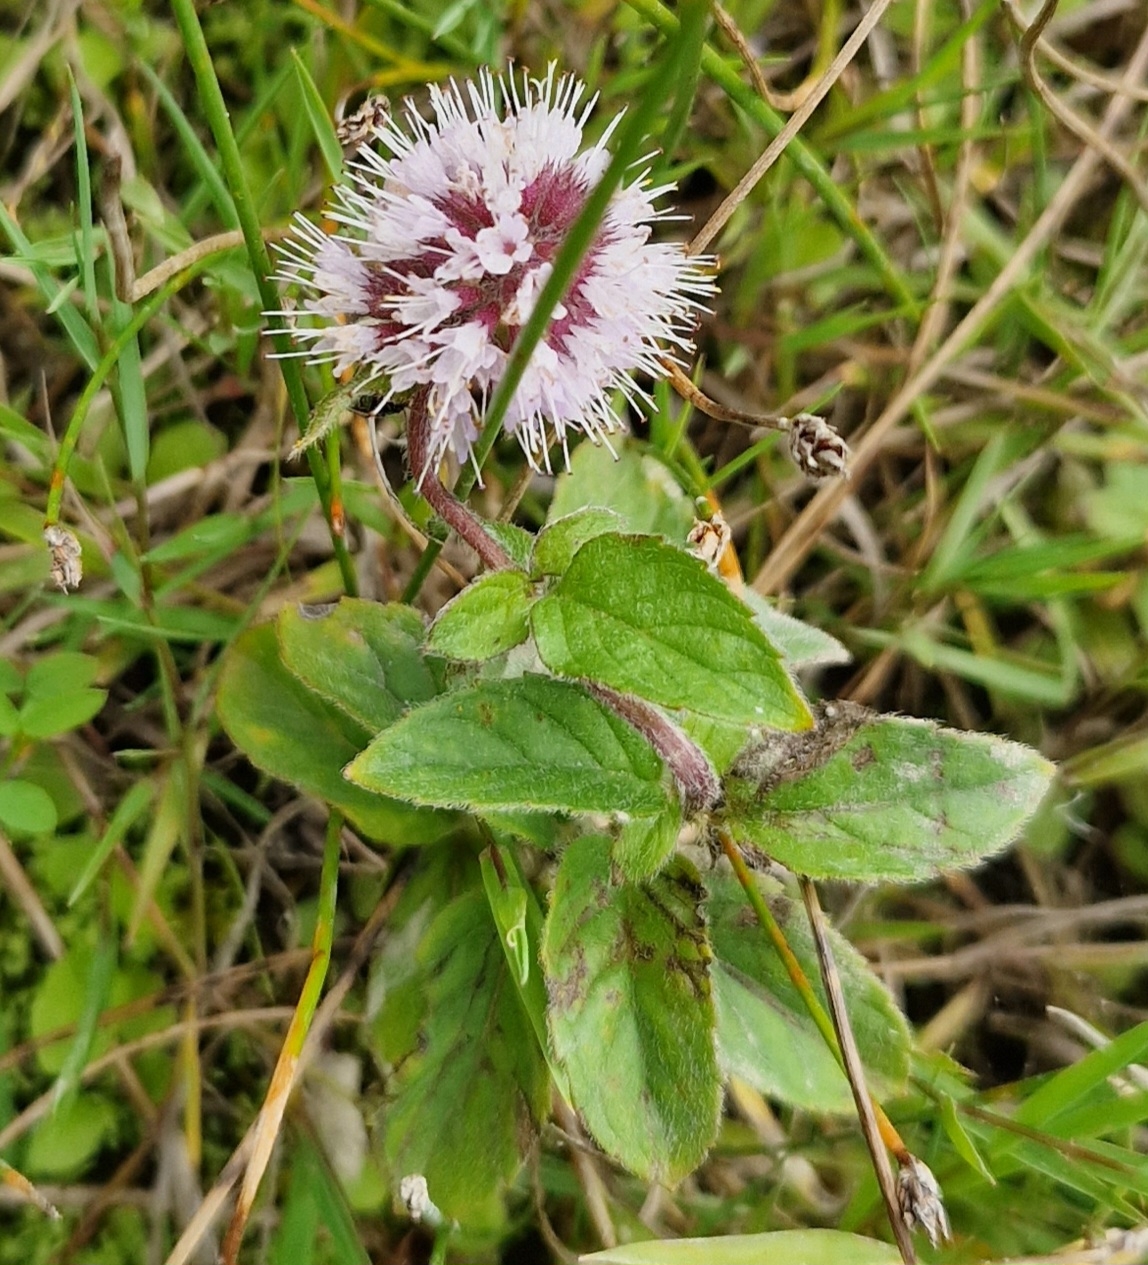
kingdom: Plantae
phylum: Tracheophyta
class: Magnoliopsida
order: Lamiales
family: Lamiaceae
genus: Mentha
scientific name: Mentha aquatica
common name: Vand-mynte
